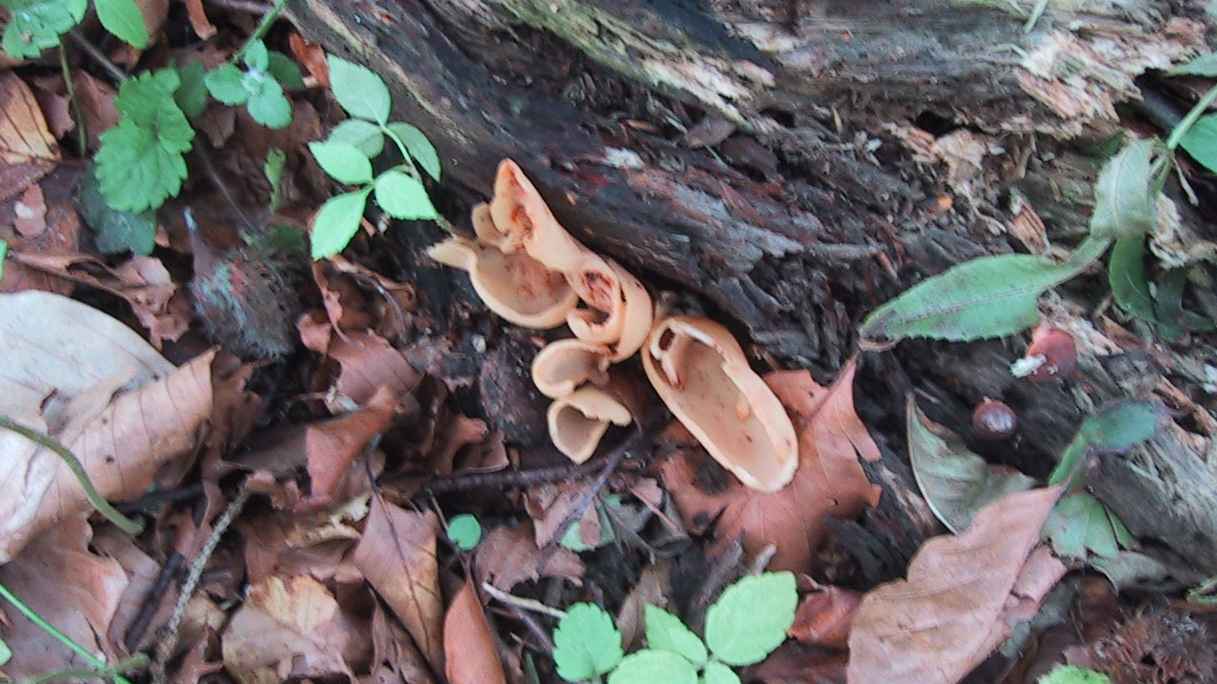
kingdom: Fungi
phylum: Ascomycota
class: Pezizomycetes
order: Pezizales
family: Otideaceae
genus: Otidea
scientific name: Otidea onotica
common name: æsel-ørebæger
